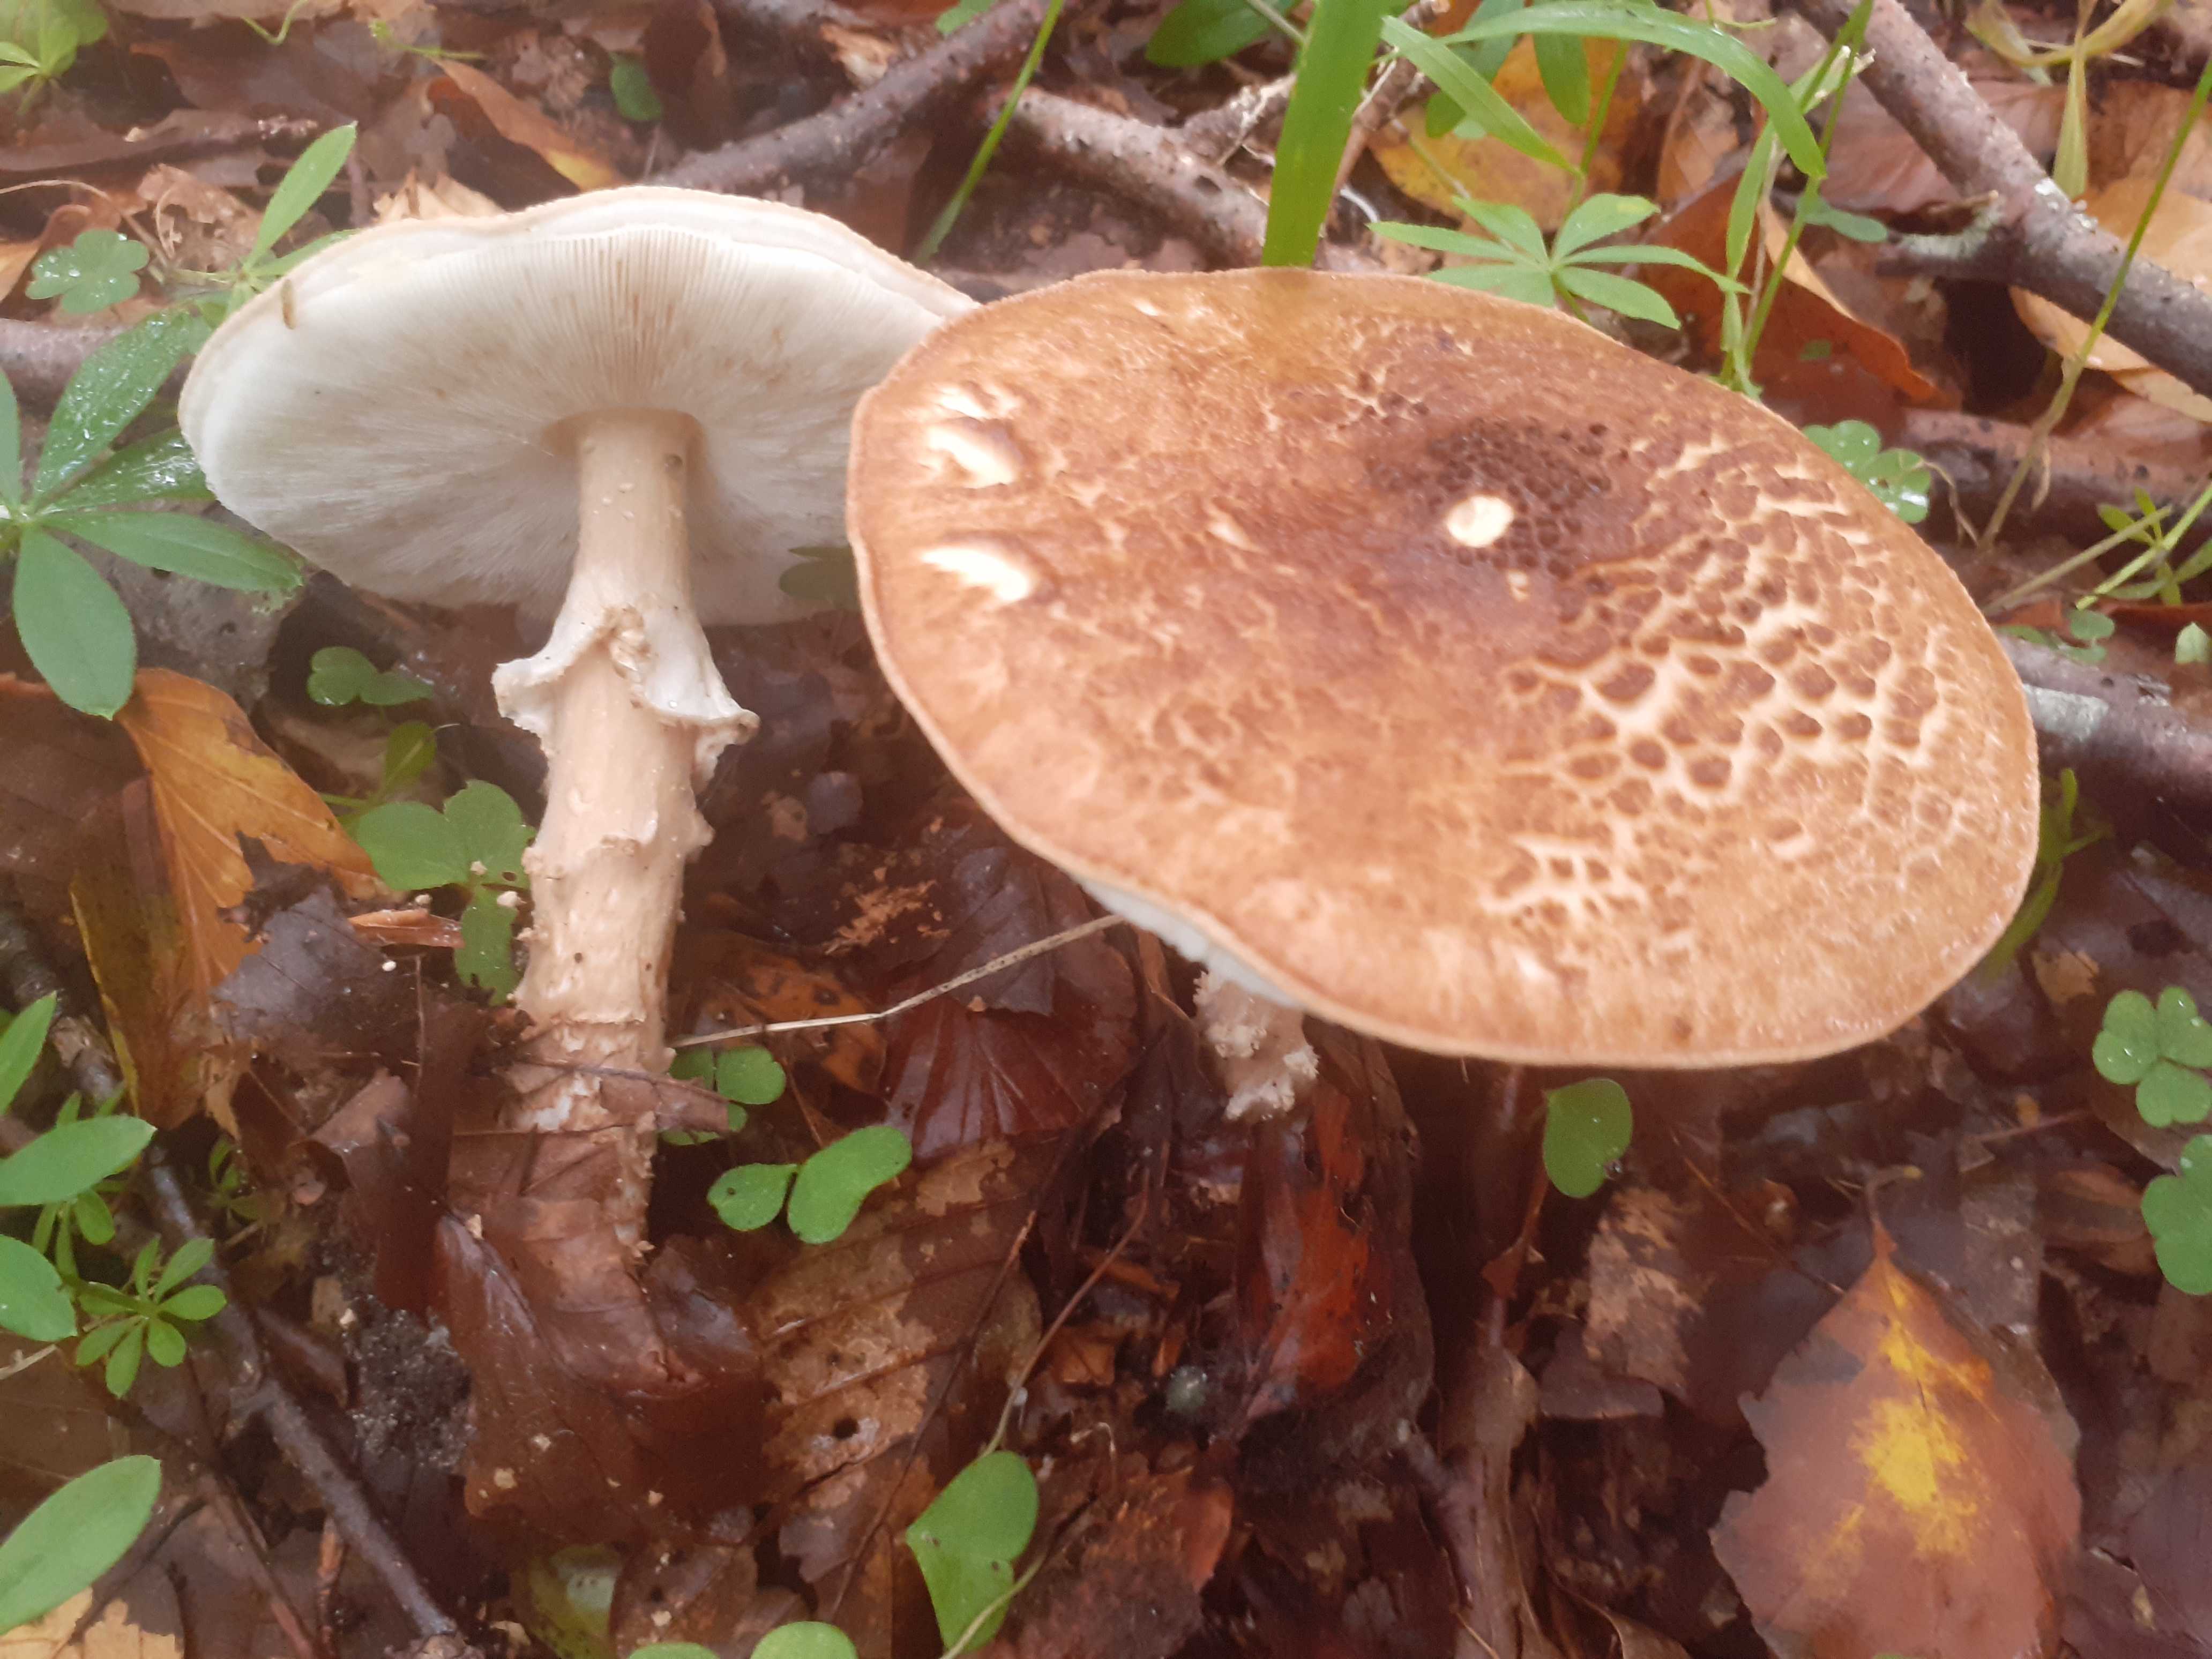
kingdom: Fungi
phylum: Basidiomycota
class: Agaricomycetes
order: Agaricales
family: Agaricaceae
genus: Echinoderma
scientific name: Echinoderma asperum
